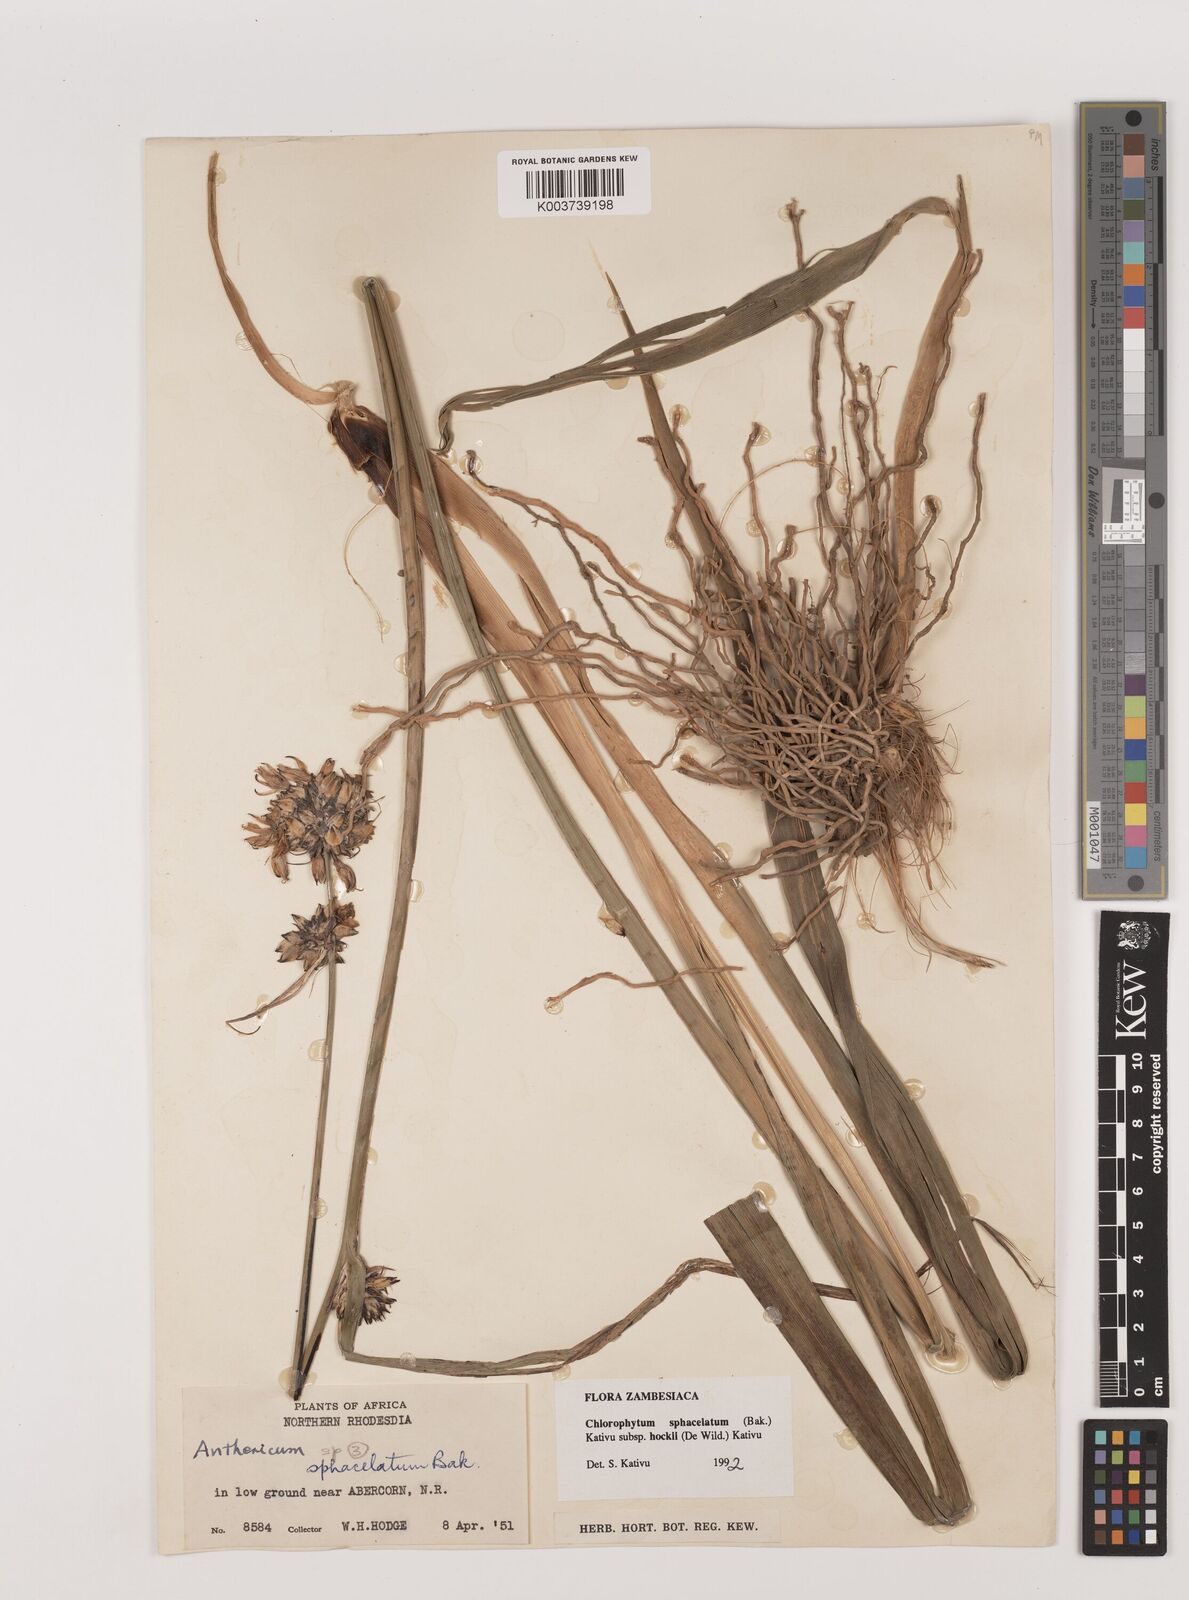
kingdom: Plantae
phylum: Tracheophyta
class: Liliopsida
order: Asparagales
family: Asparagaceae
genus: Chlorophytum
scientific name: Chlorophytum sphacelatum
